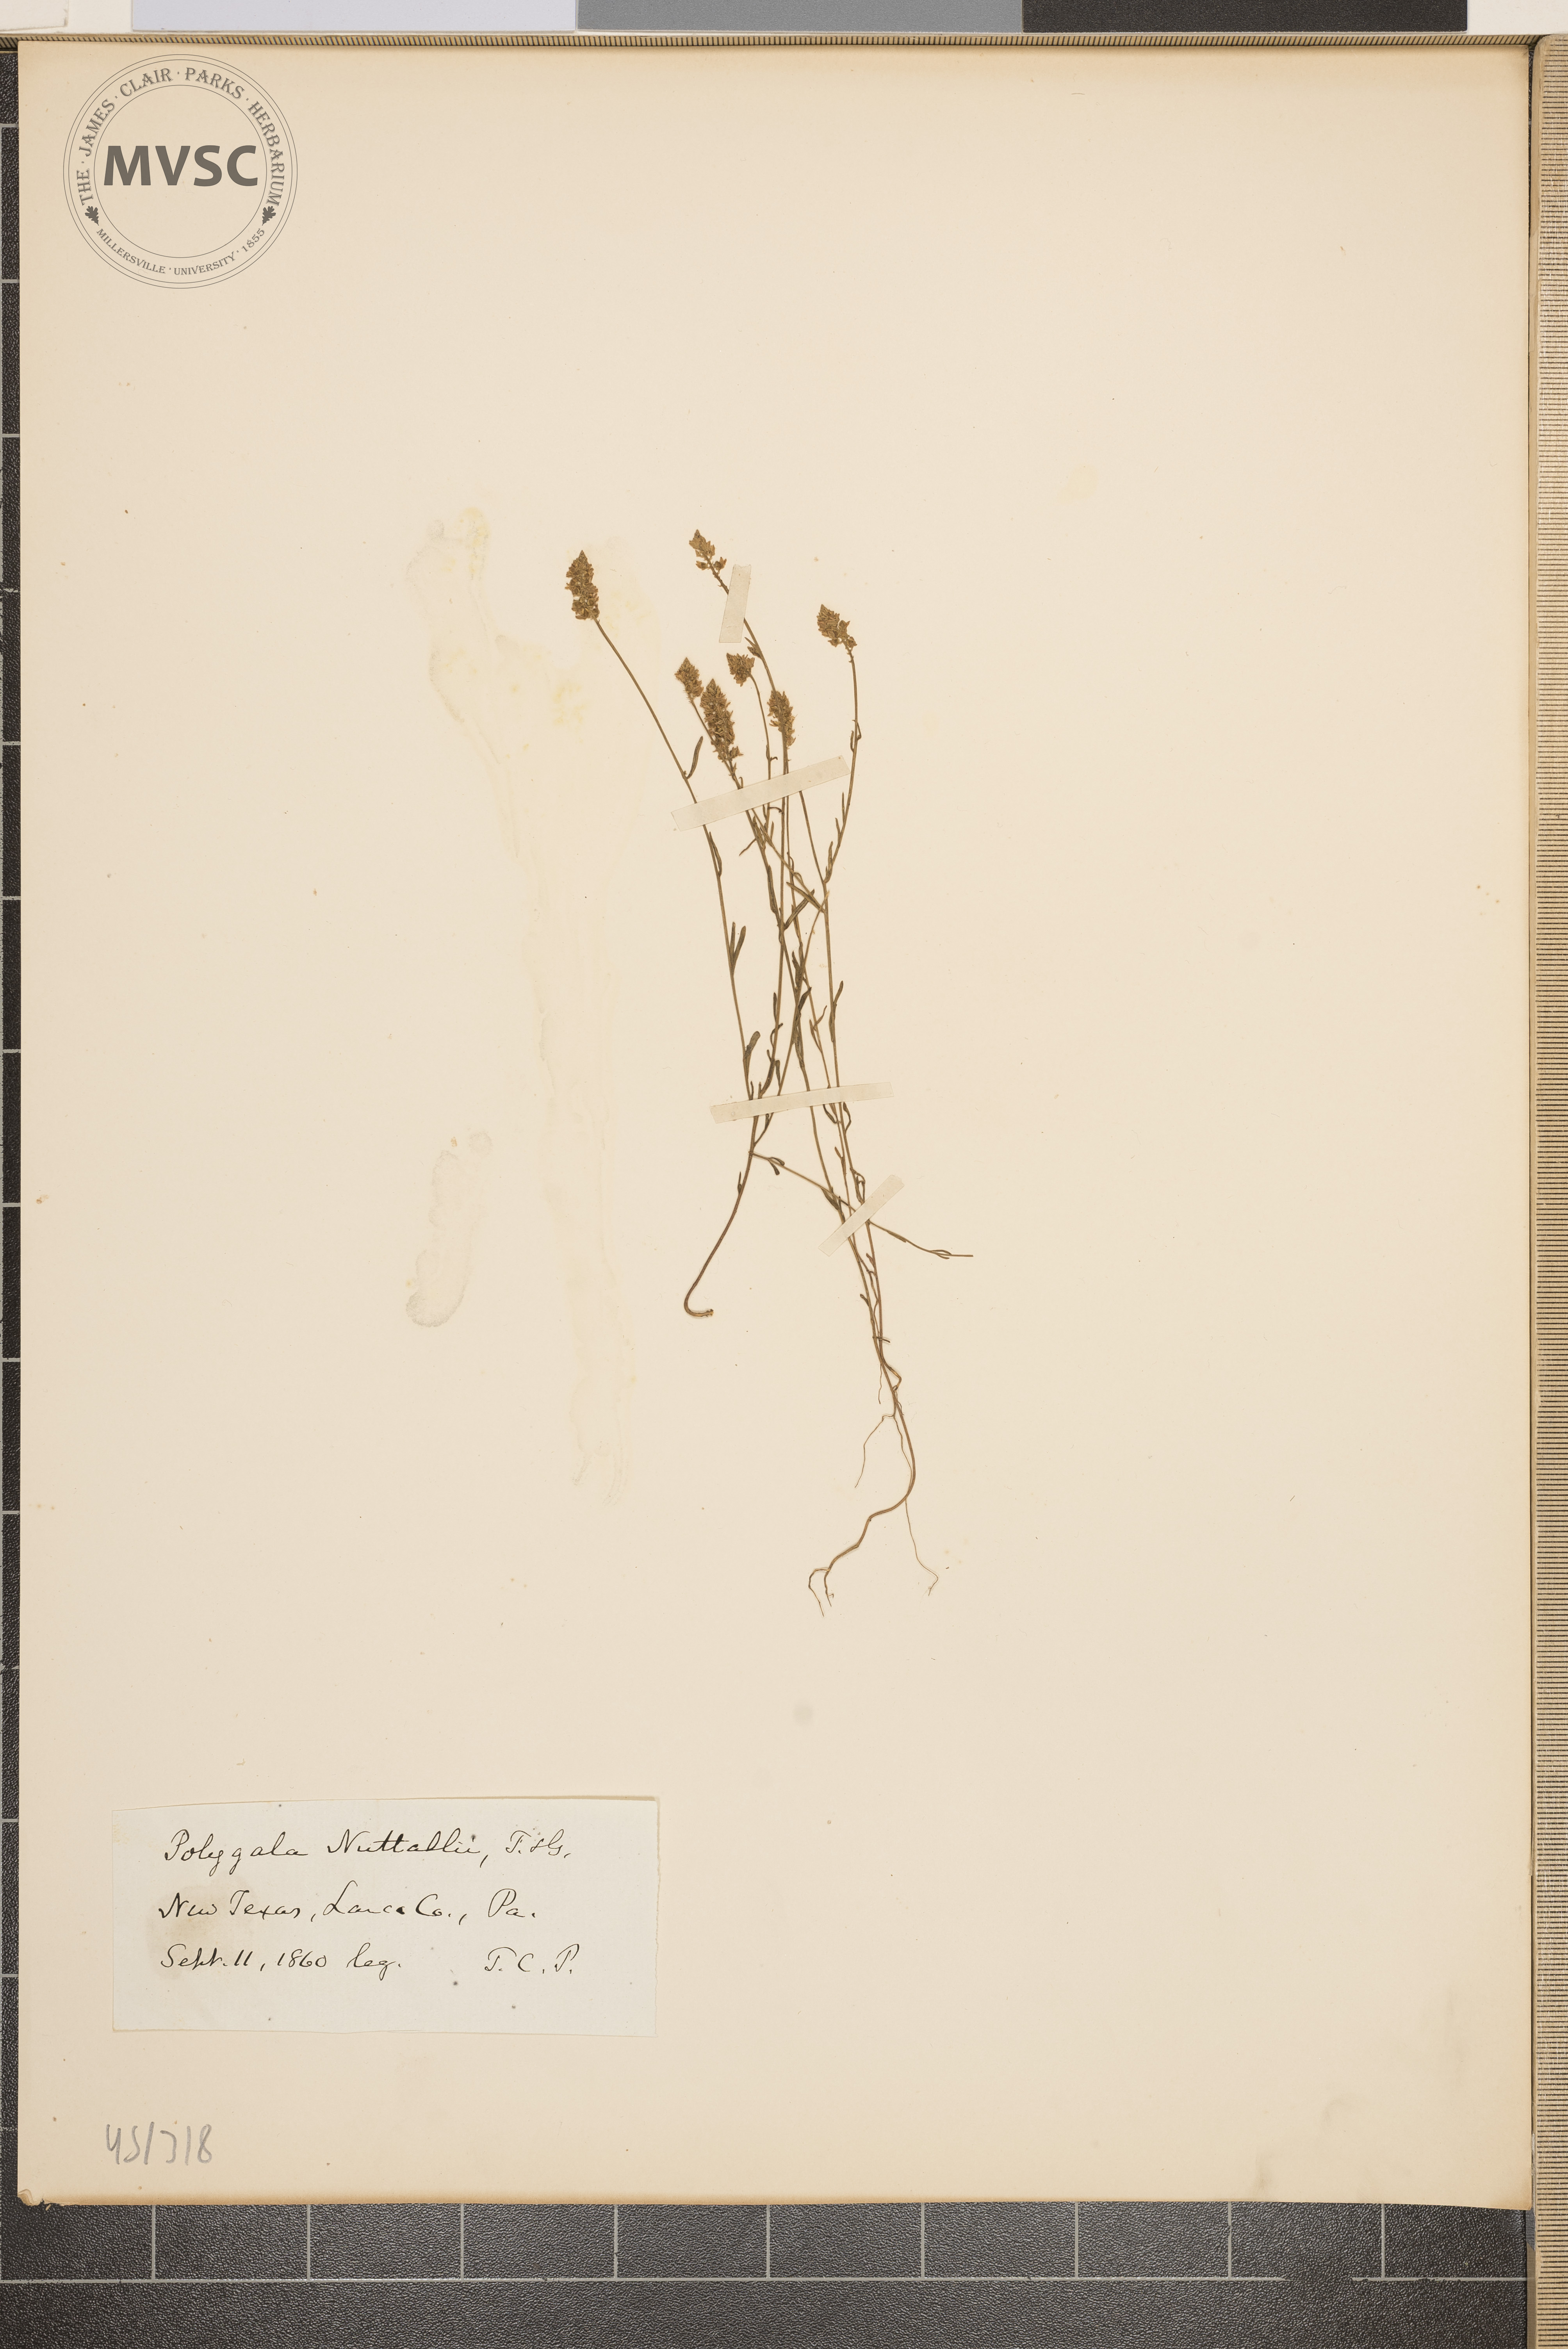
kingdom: Plantae
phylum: Tracheophyta
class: Magnoliopsida
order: Fabales
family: Polygalaceae
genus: Polygala
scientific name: Polygala nuttallii
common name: Nuttall's milkwort
